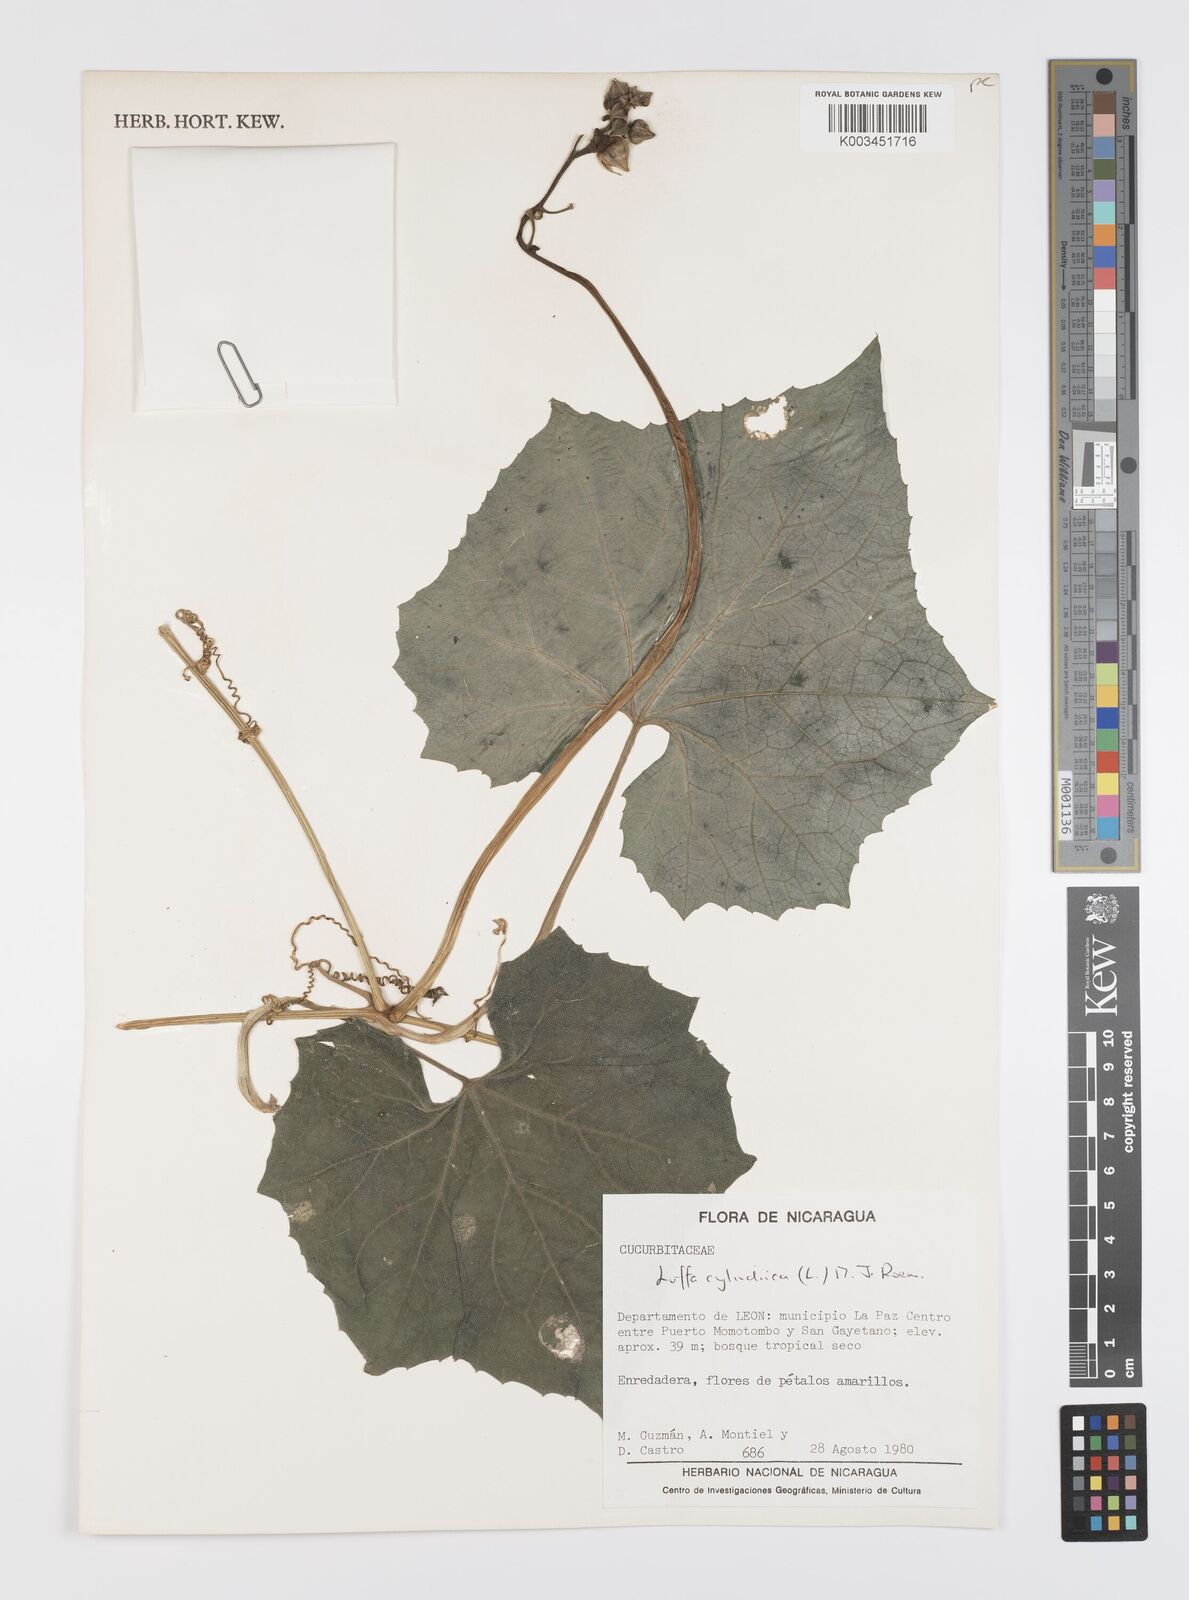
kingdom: Plantae
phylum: Tracheophyta
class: Magnoliopsida
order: Cucurbitales
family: Cucurbitaceae
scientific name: Cucurbitaceae
